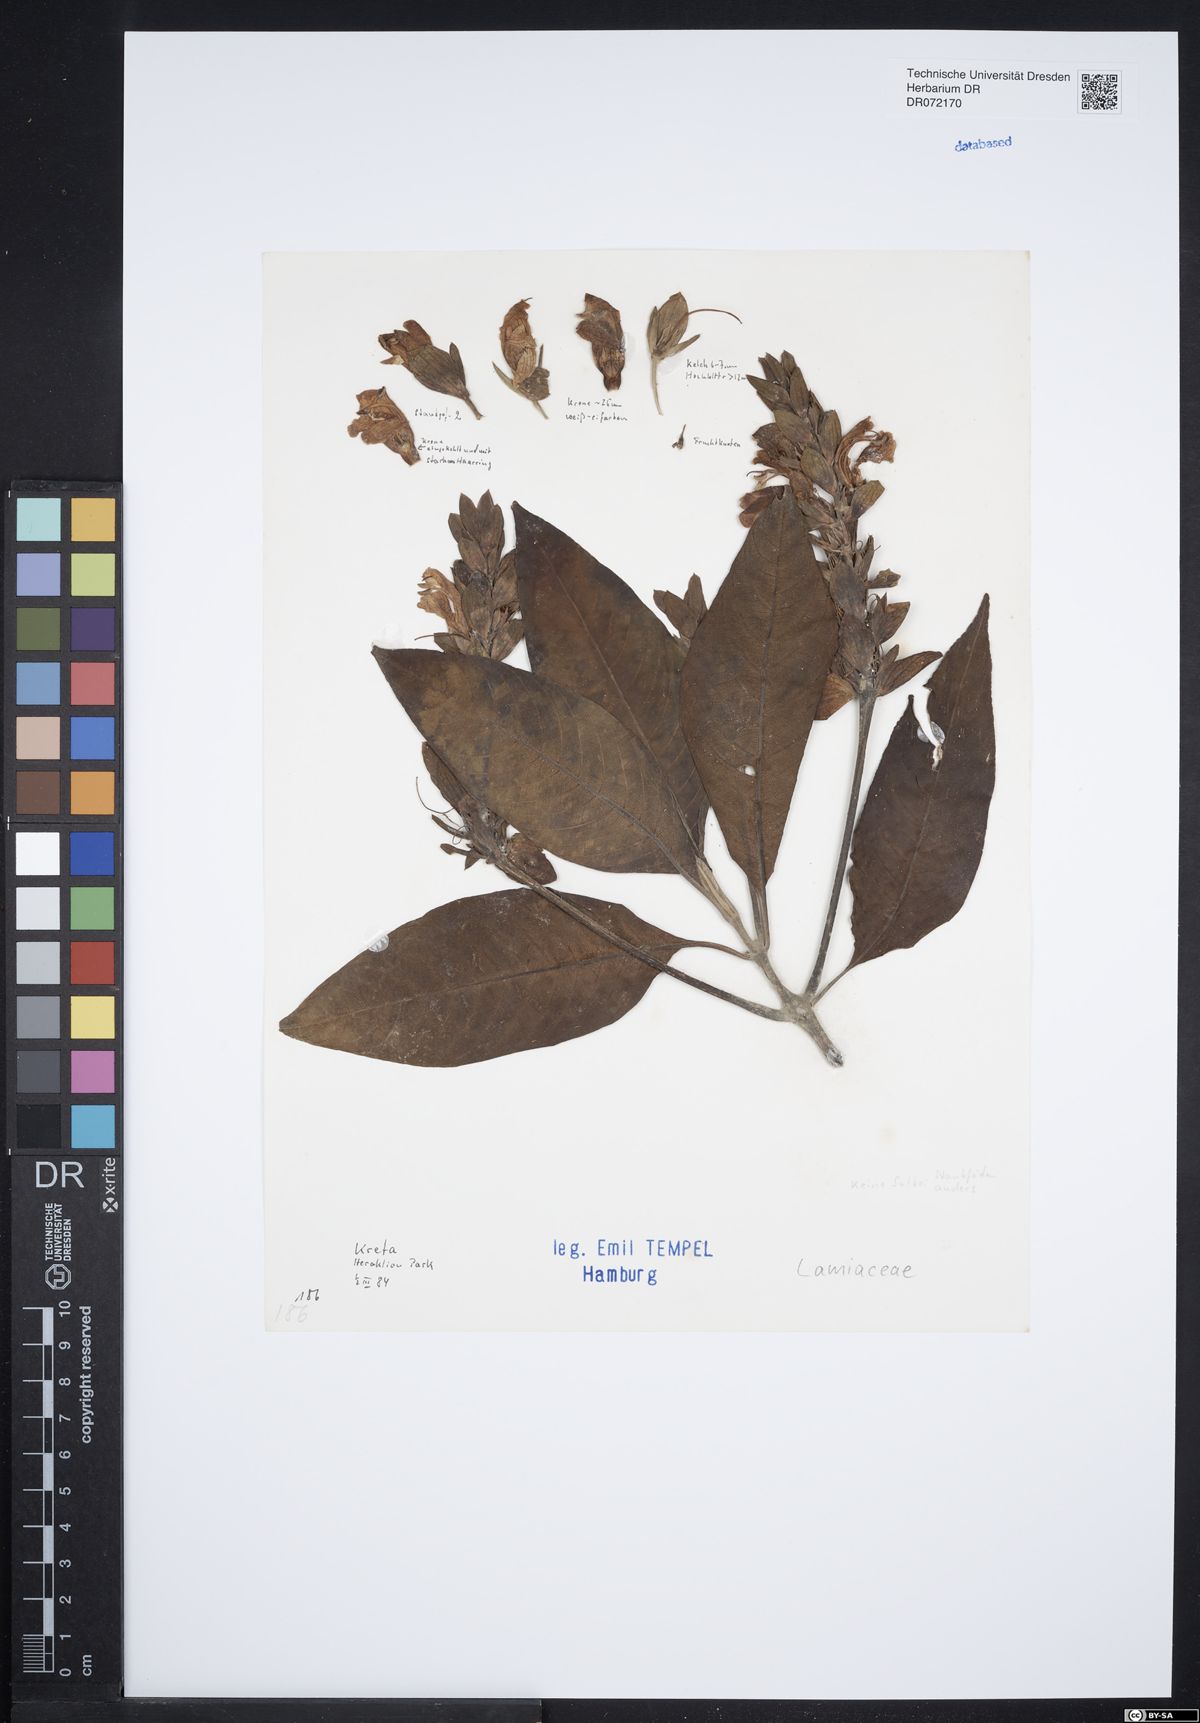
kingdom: Plantae
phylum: Tracheophyta
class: Magnoliopsida
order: Lamiales
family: Lamiaceae
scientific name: Lamiaceae
